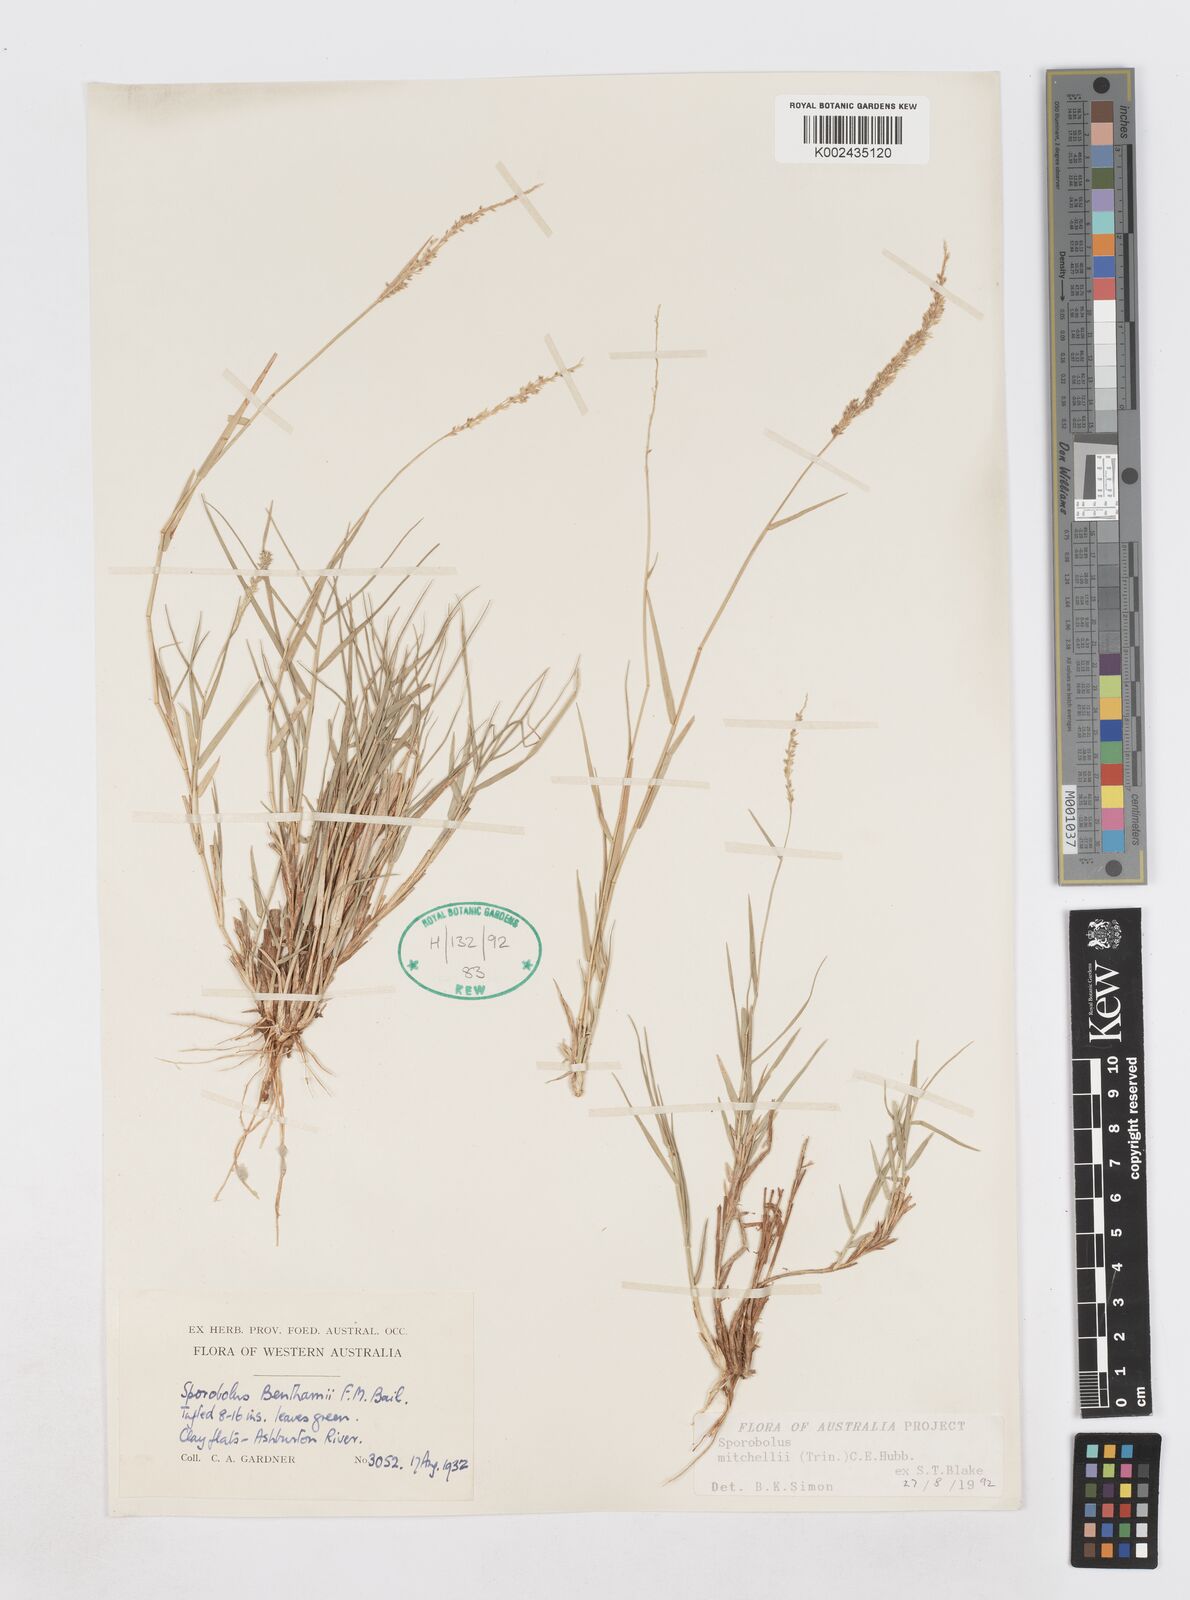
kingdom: Plantae
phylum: Tracheophyta
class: Liliopsida
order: Poales
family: Poaceae
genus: Sporobolus
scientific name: Sporobolus mitchellii
